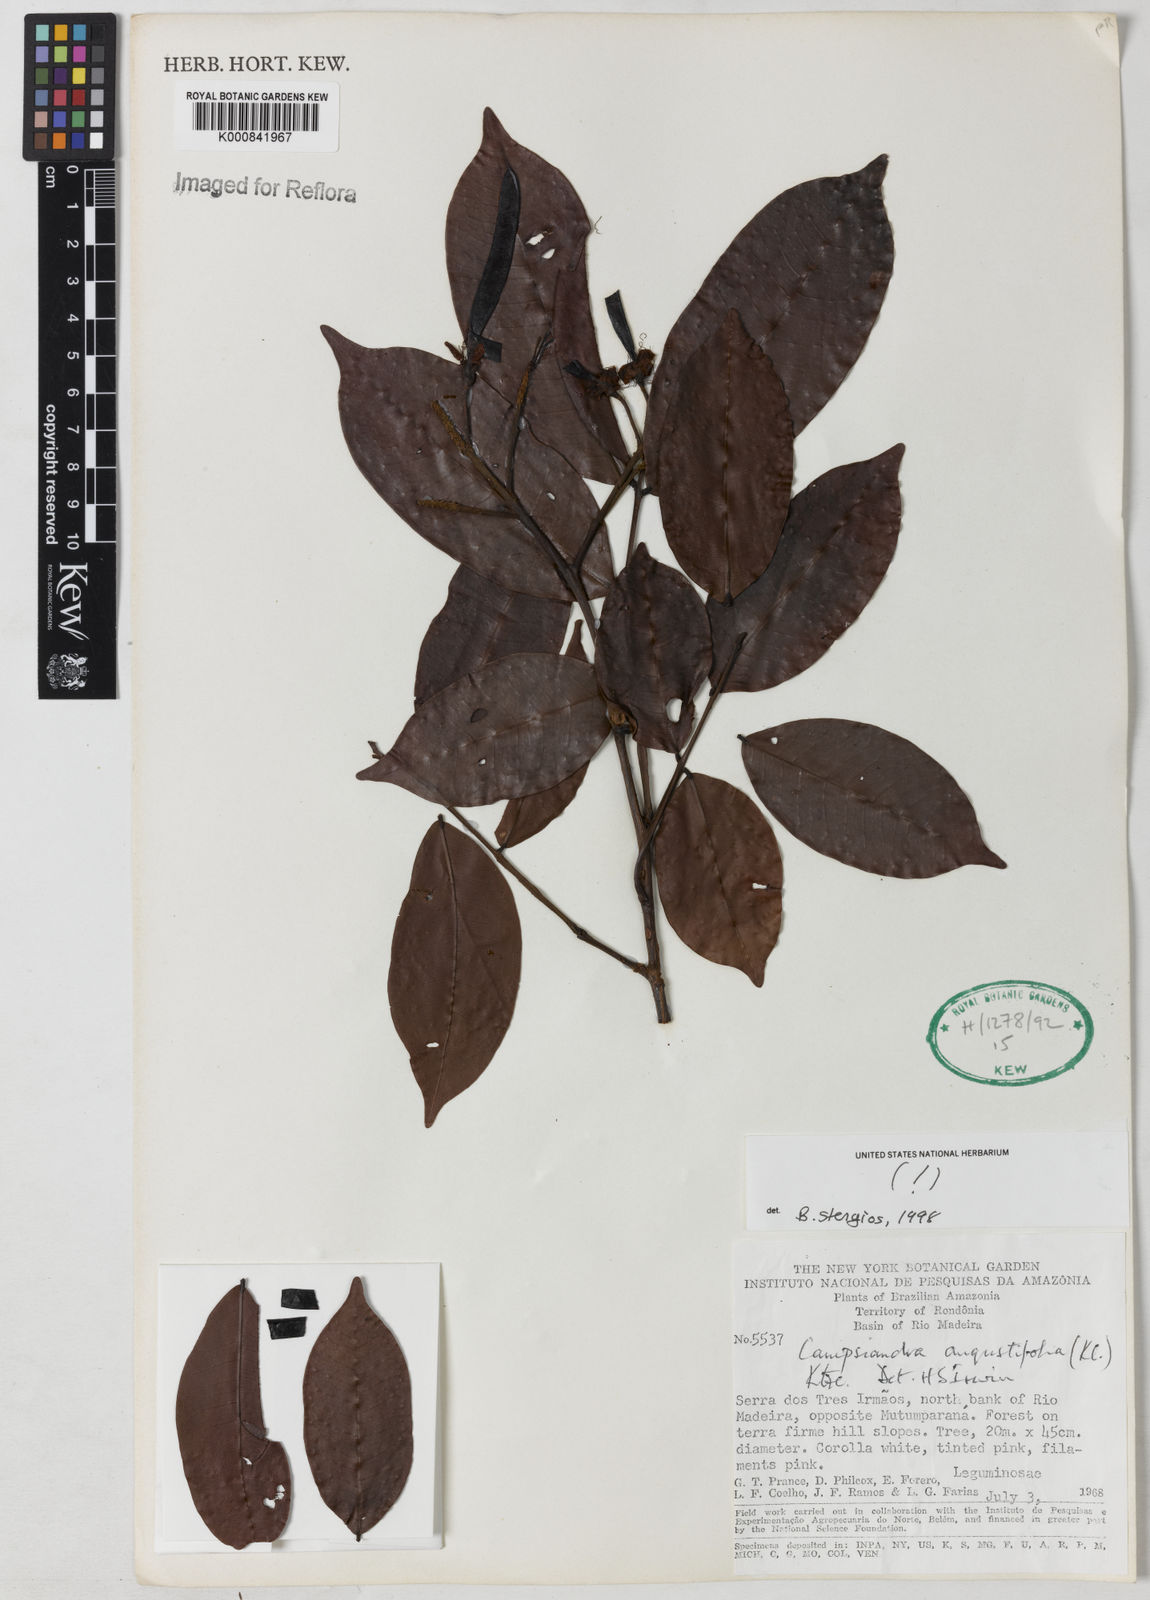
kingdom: Plantae
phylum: Tracheophyta
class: Magnoliopsida
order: Fabales
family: Fabaceae
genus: Campsiandra
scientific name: Campsiandra
